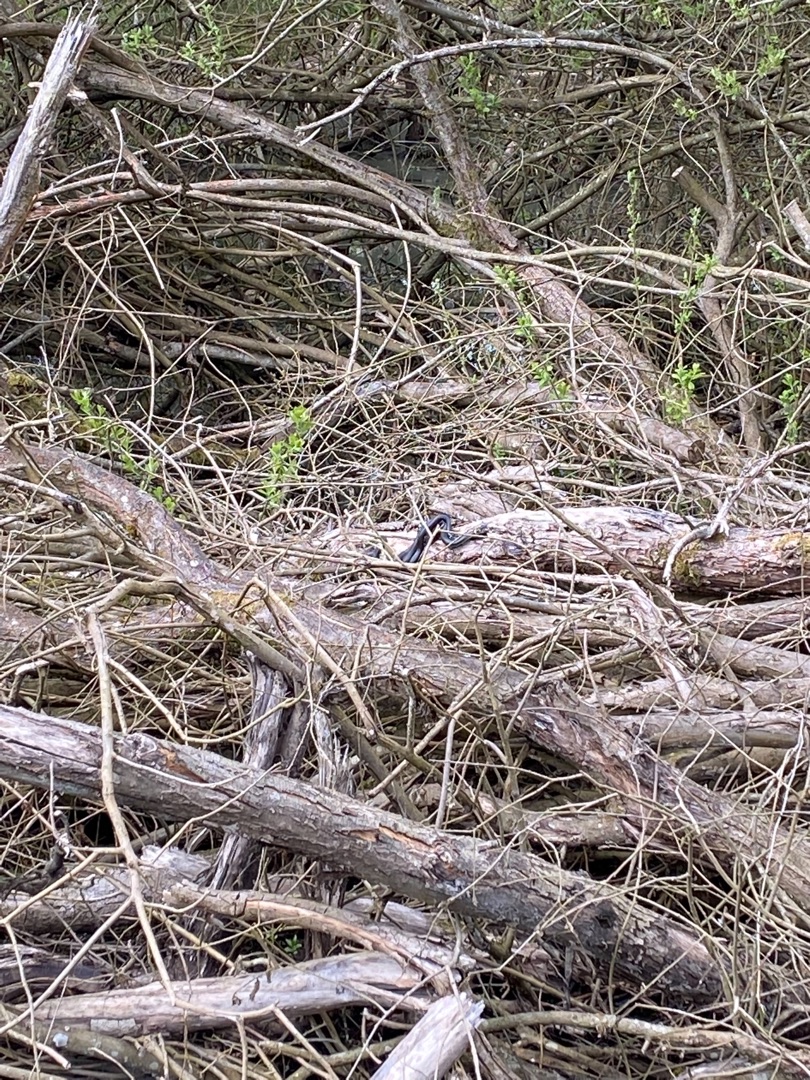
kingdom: Animalia
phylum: Chordata
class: Squamata
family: Colubridae
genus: Natrix
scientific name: Natrix natrix
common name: Snog
